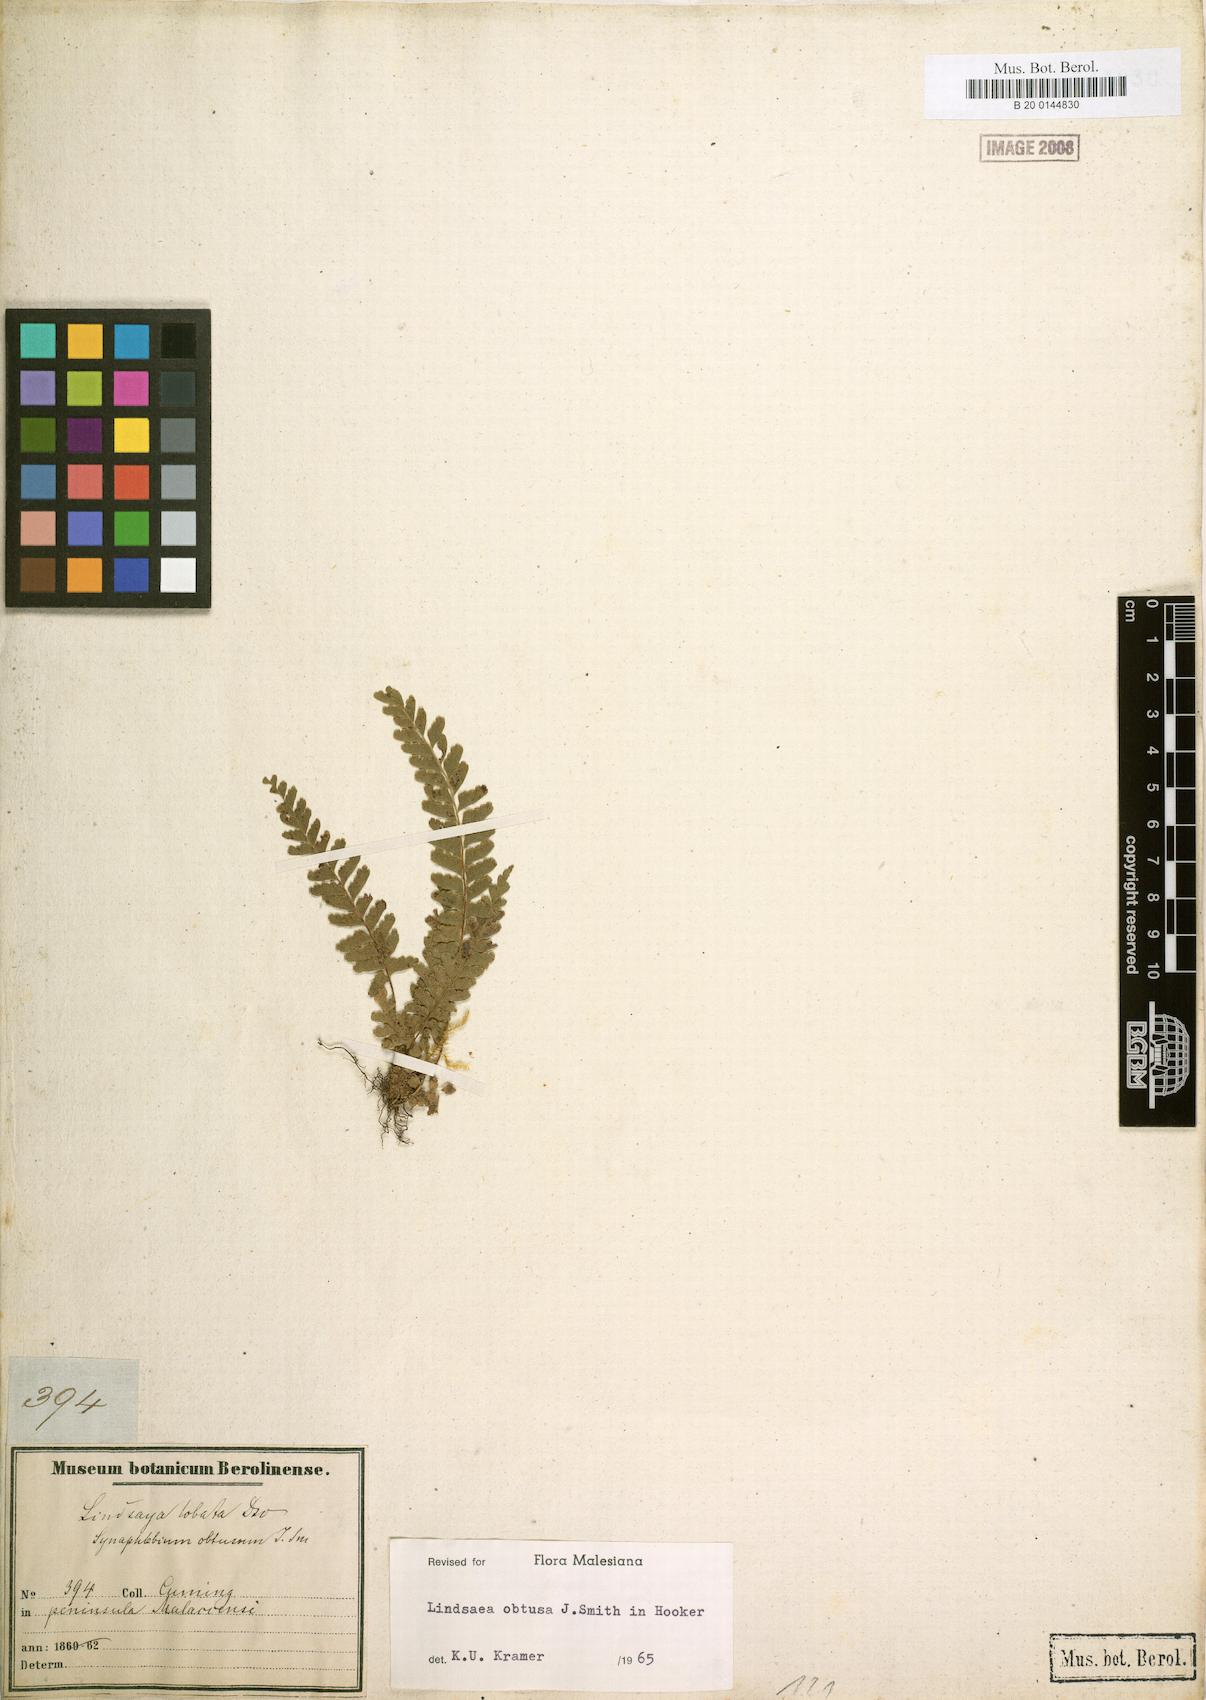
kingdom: Plantae
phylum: Tracheophyta
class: Polypodiopsida
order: Polypodiales
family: Lindsaeaceae
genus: Lindsaea
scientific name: Lindsaea cultrata
